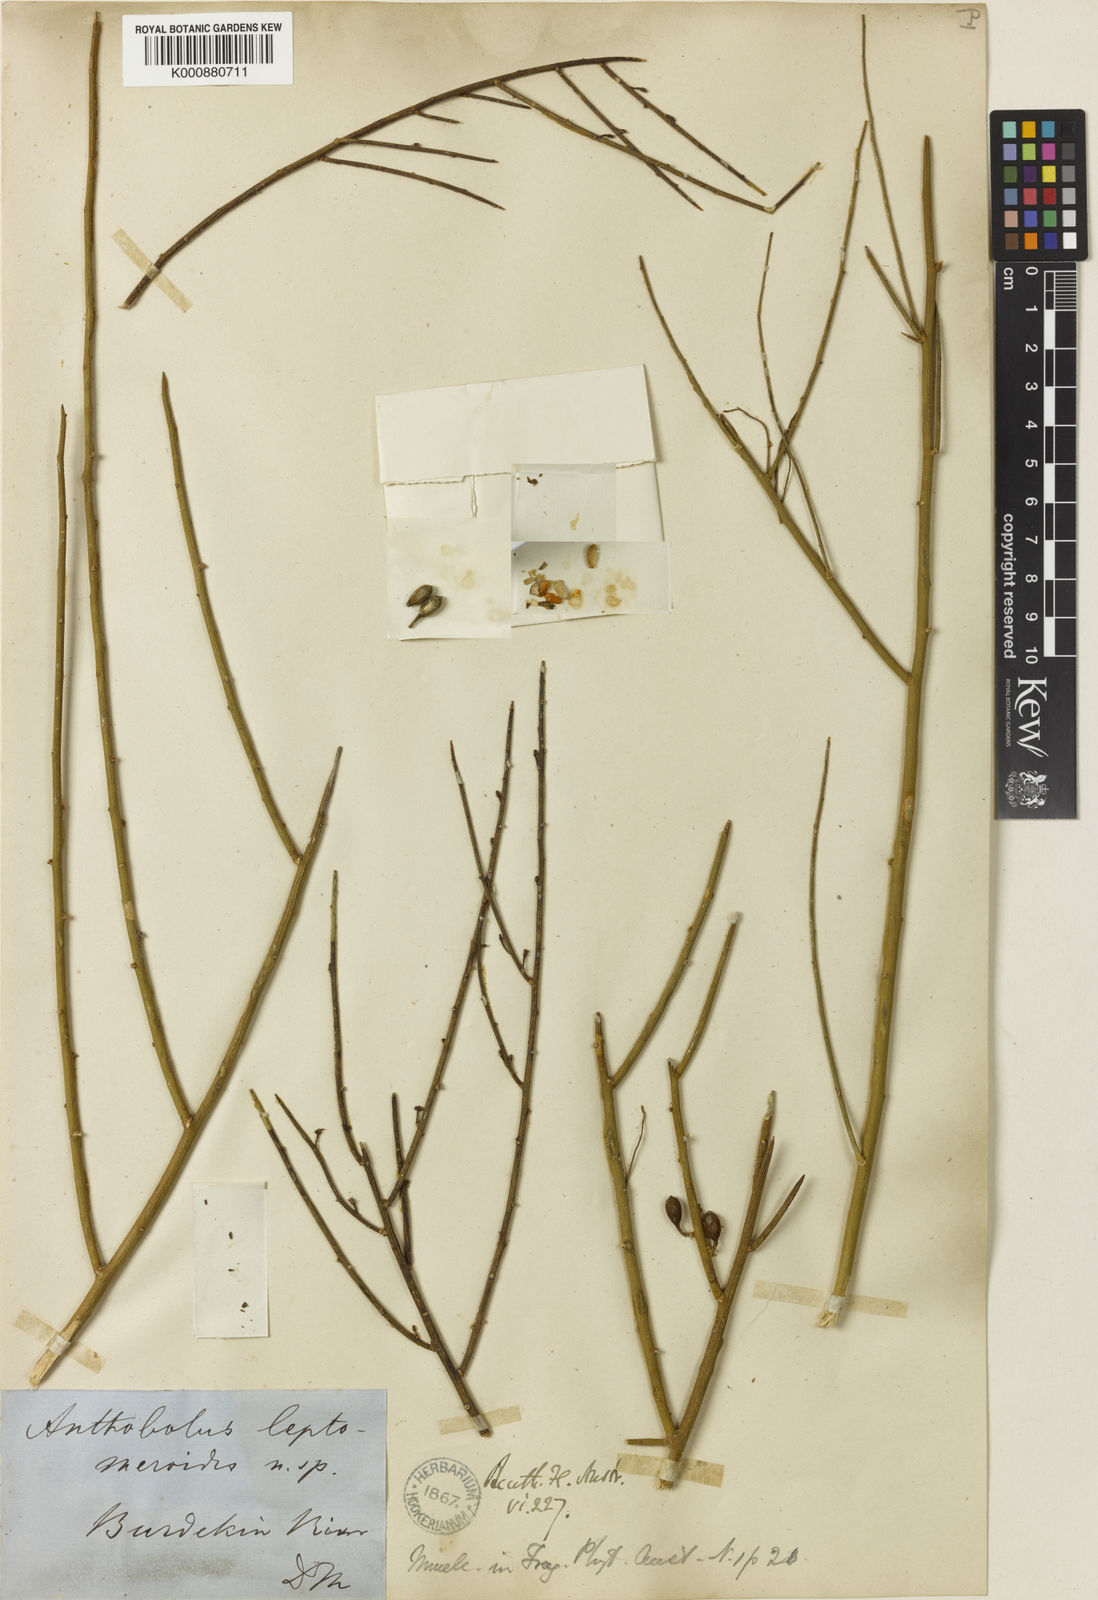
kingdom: Plantae
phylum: Tracheophyta
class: Magnoliopsida
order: Santalales
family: Opiliaceae
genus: Anthobolus
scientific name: Anthobolus
